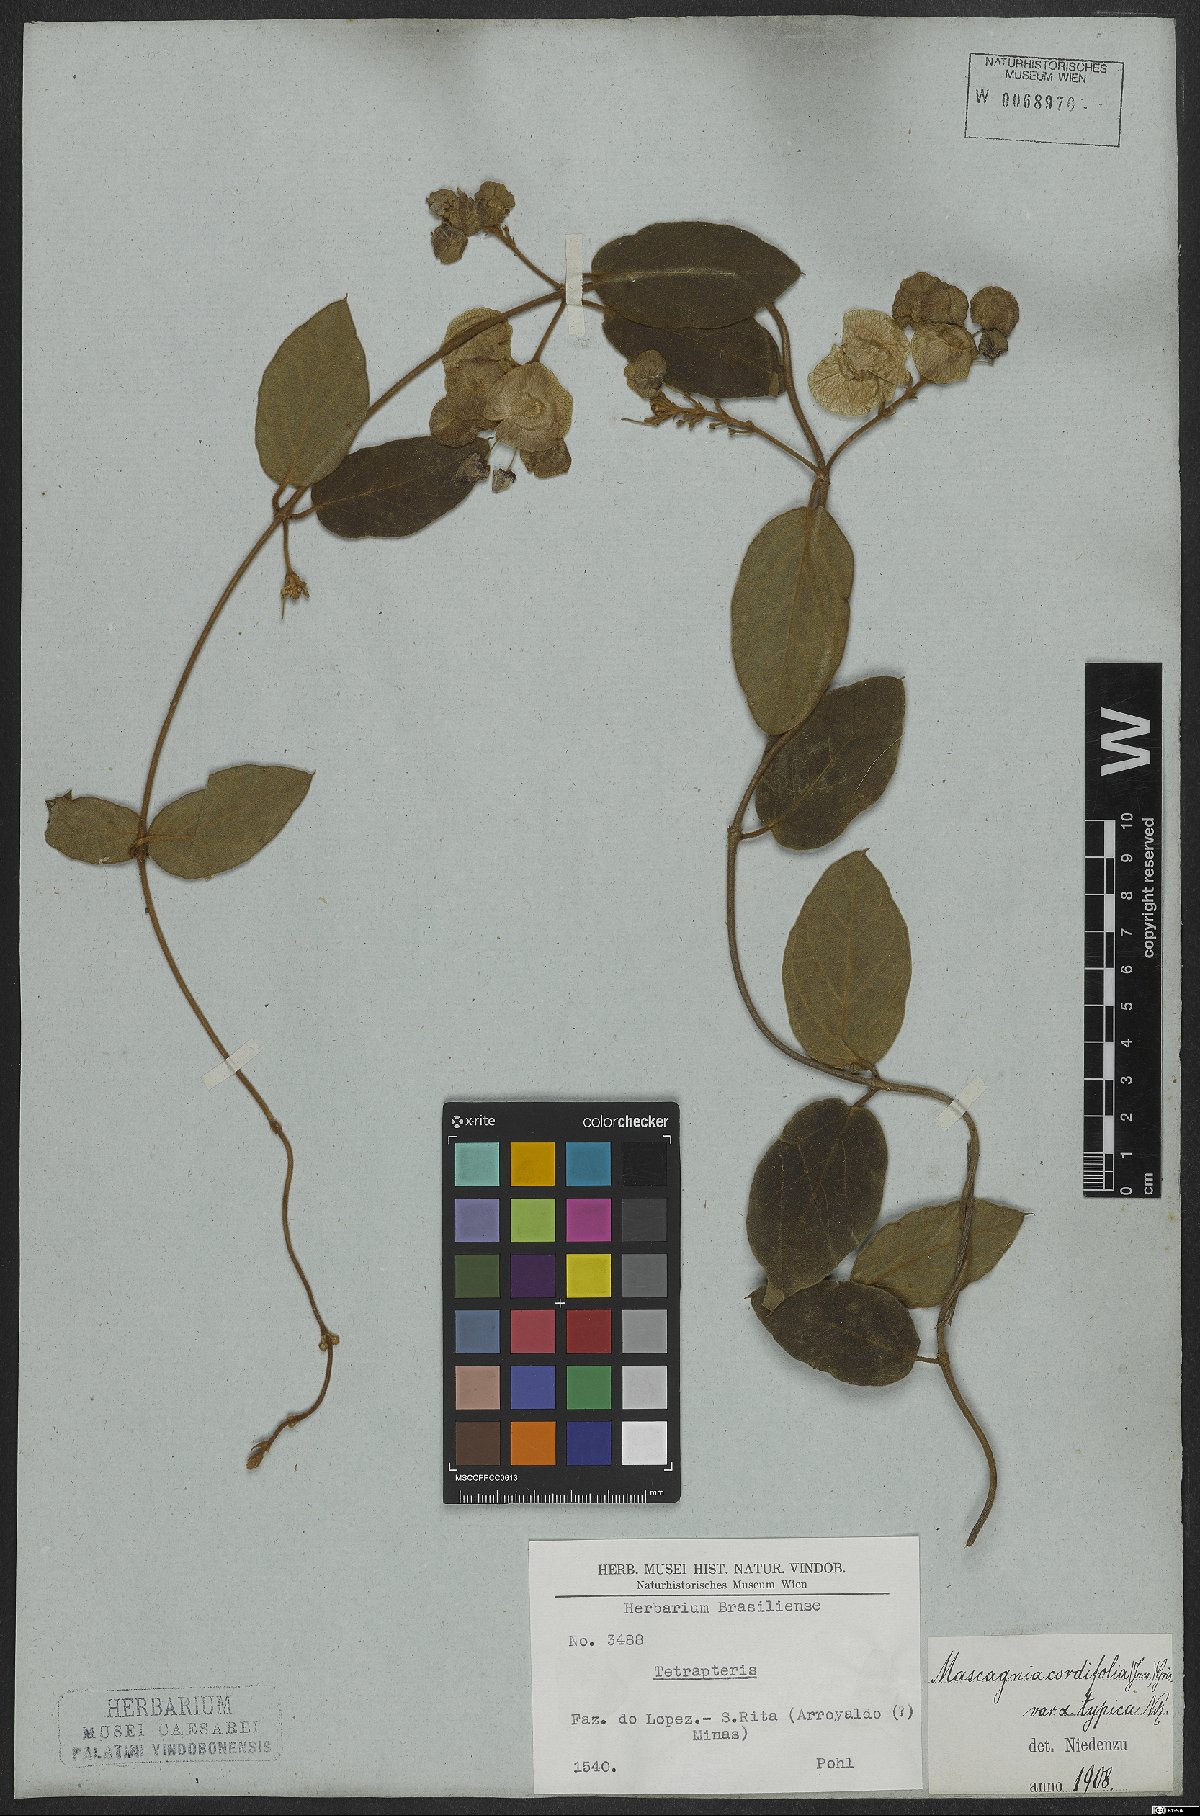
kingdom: Plantae
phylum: Tracheophyta
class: Magnoliopsida
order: Malpighiales
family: Malpighiaceae
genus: Mascagnia
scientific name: Mascagnia cordifolia
